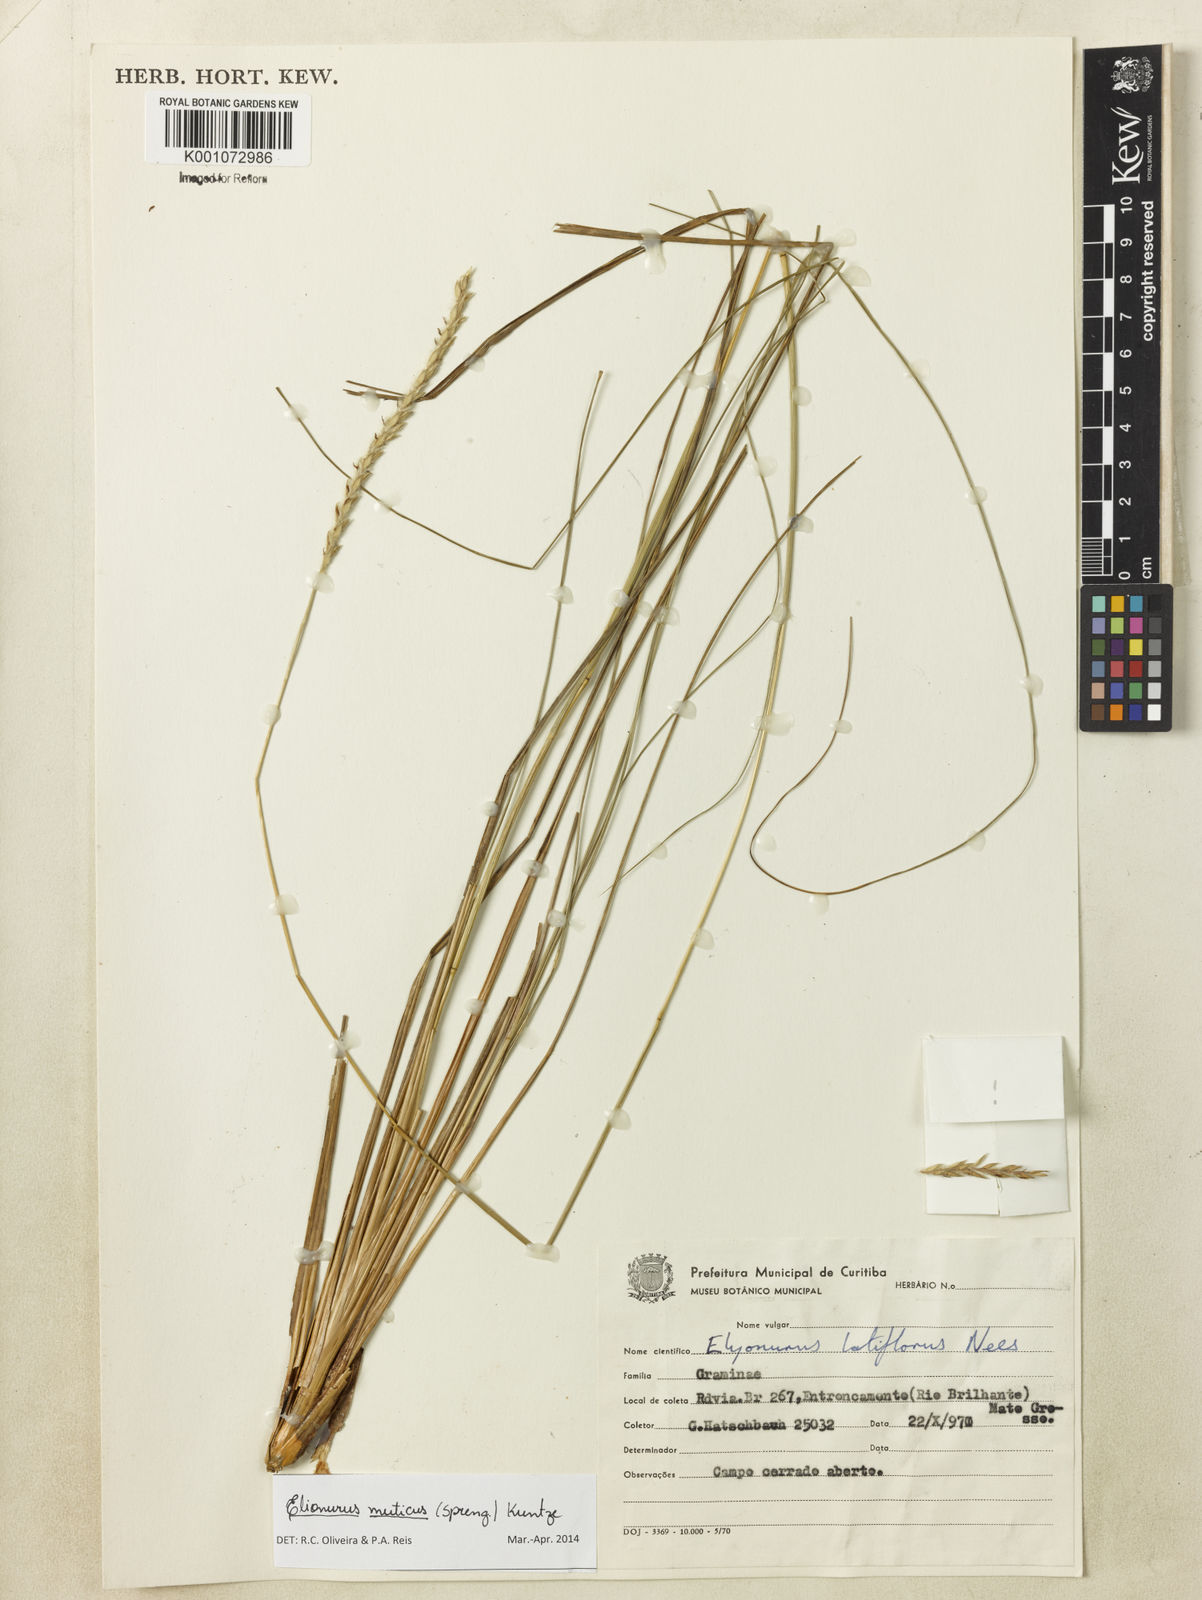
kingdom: Plantae
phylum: Tracheophyta
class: Liliopsida
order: Poales
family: Poaceae
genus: Elionurus
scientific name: Elionurus muticus
